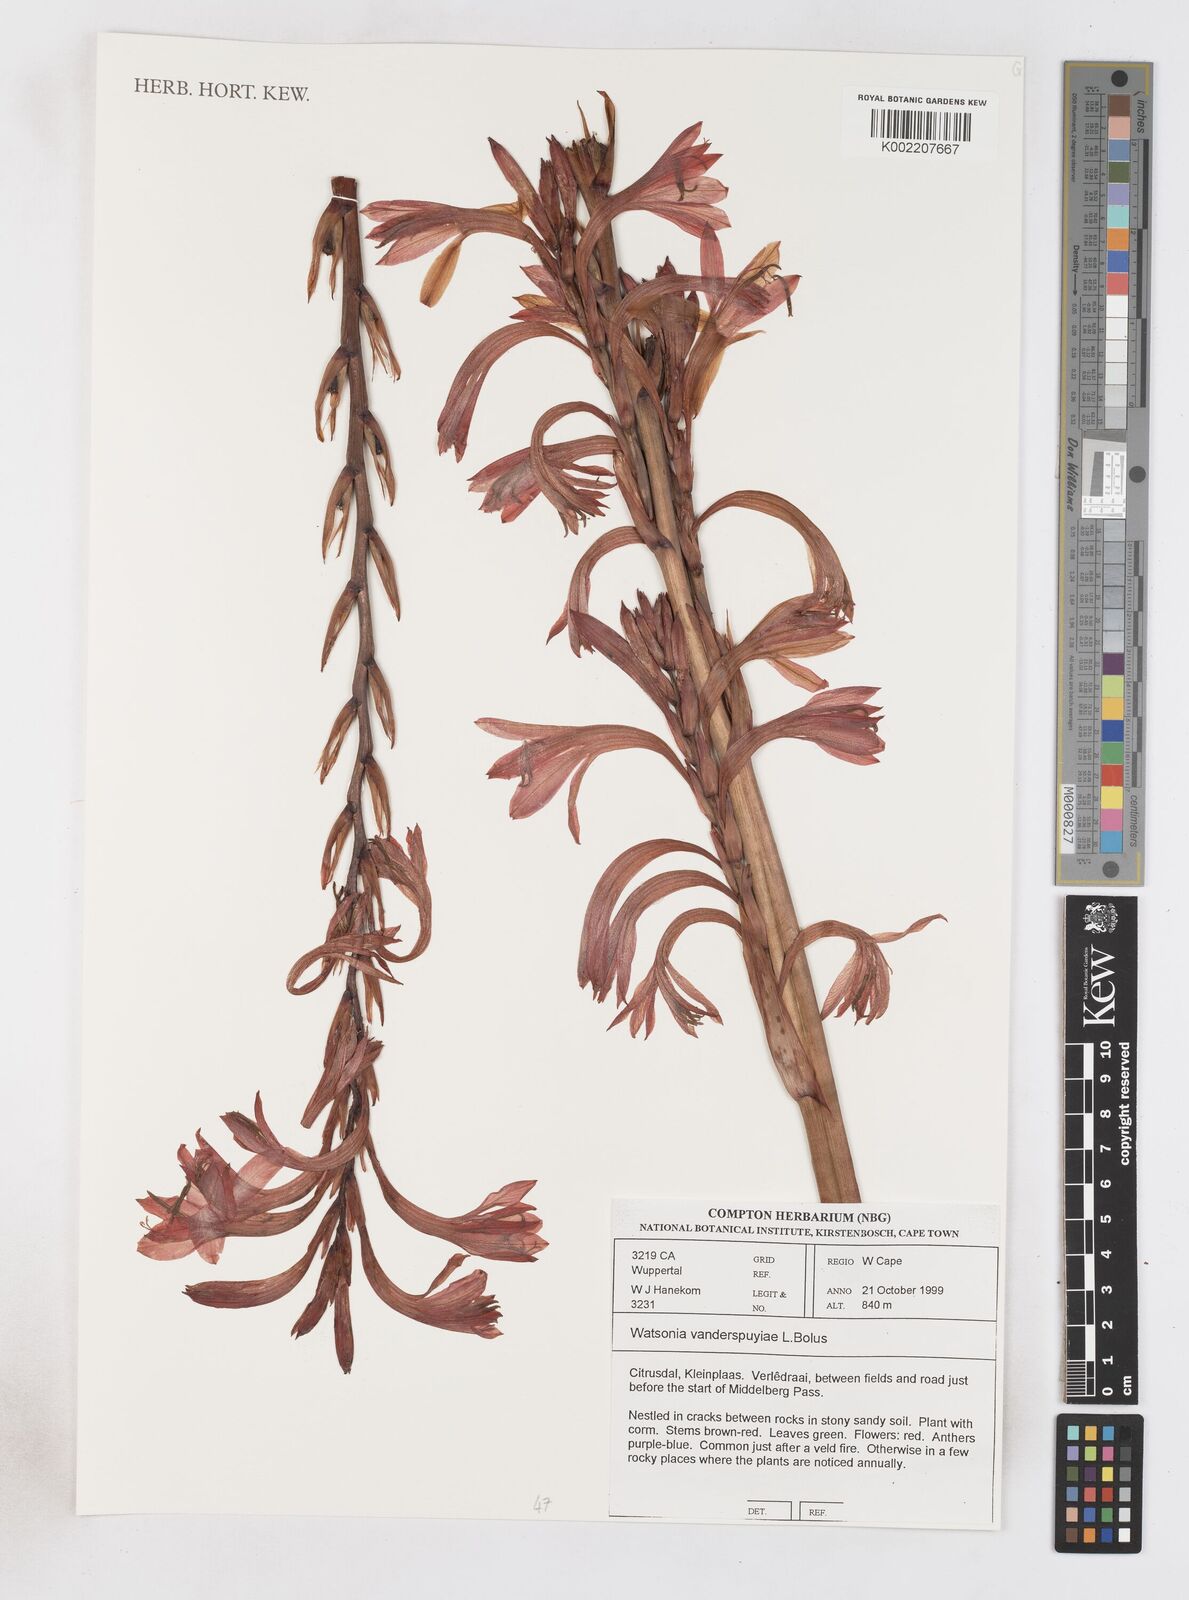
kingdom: Plantae
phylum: Tracheophyta
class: Liliopsida
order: Asparagales
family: Iridaceae
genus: Watsonia
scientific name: Watsonia vanderspuyae
